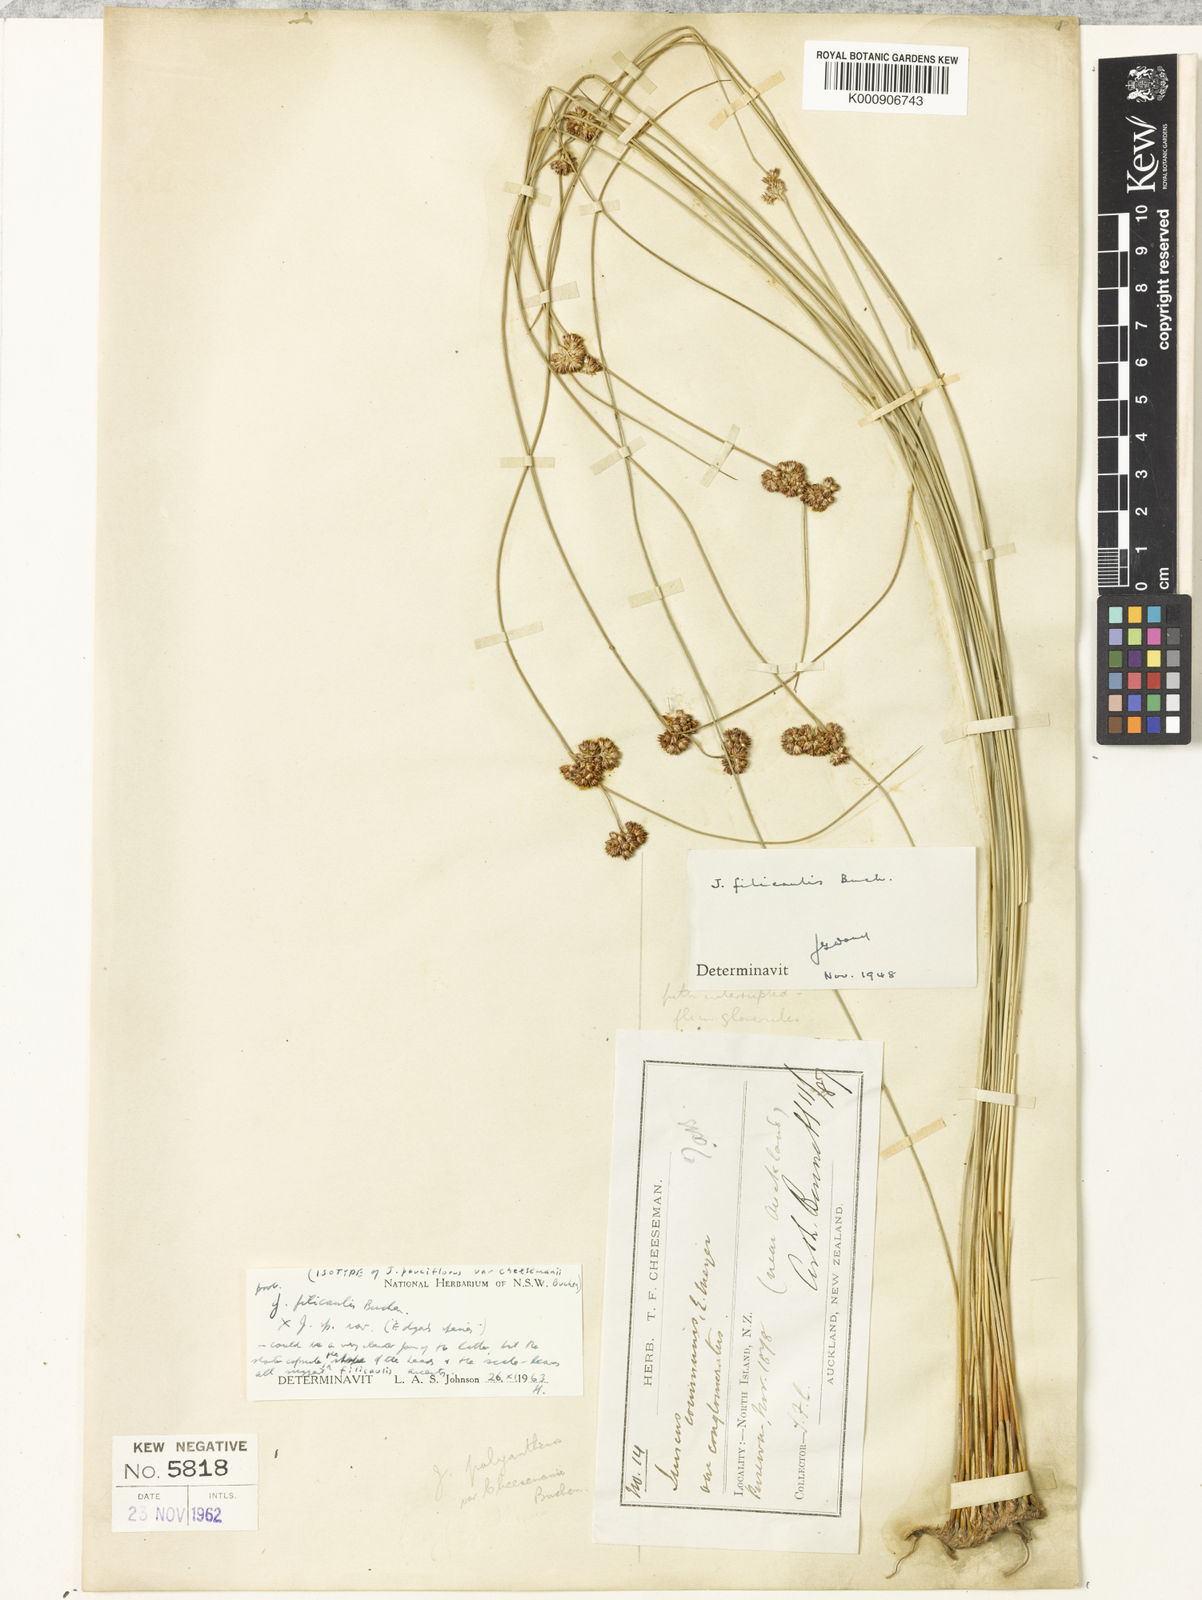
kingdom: Plantae
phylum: Tracheophyta
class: Liliopsida
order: Poales
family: Juncaceae
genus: Juncus
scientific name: Juncus filicaulis
